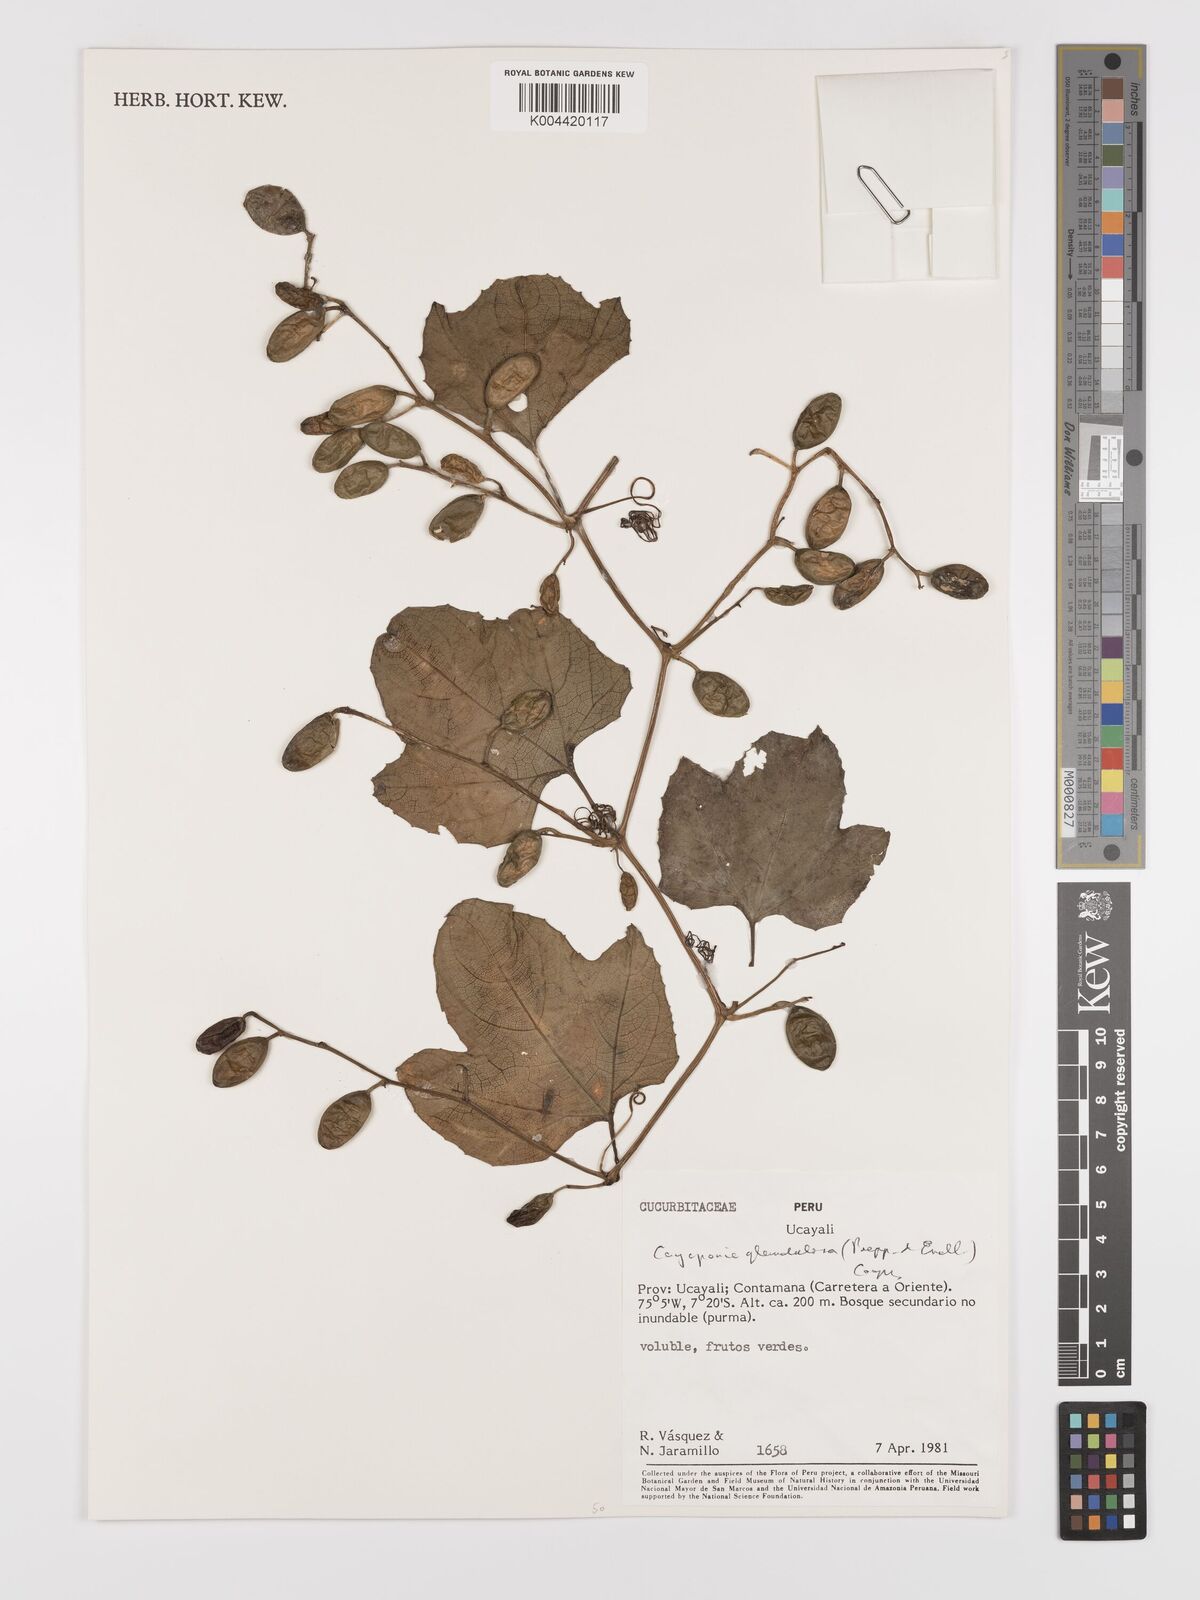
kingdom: Plantae
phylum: Tracheophyta
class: Magnoliopsida
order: Cucurbitales
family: Cucurbitaceae
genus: Cayaponia
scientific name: Cayaponia glandulosa
